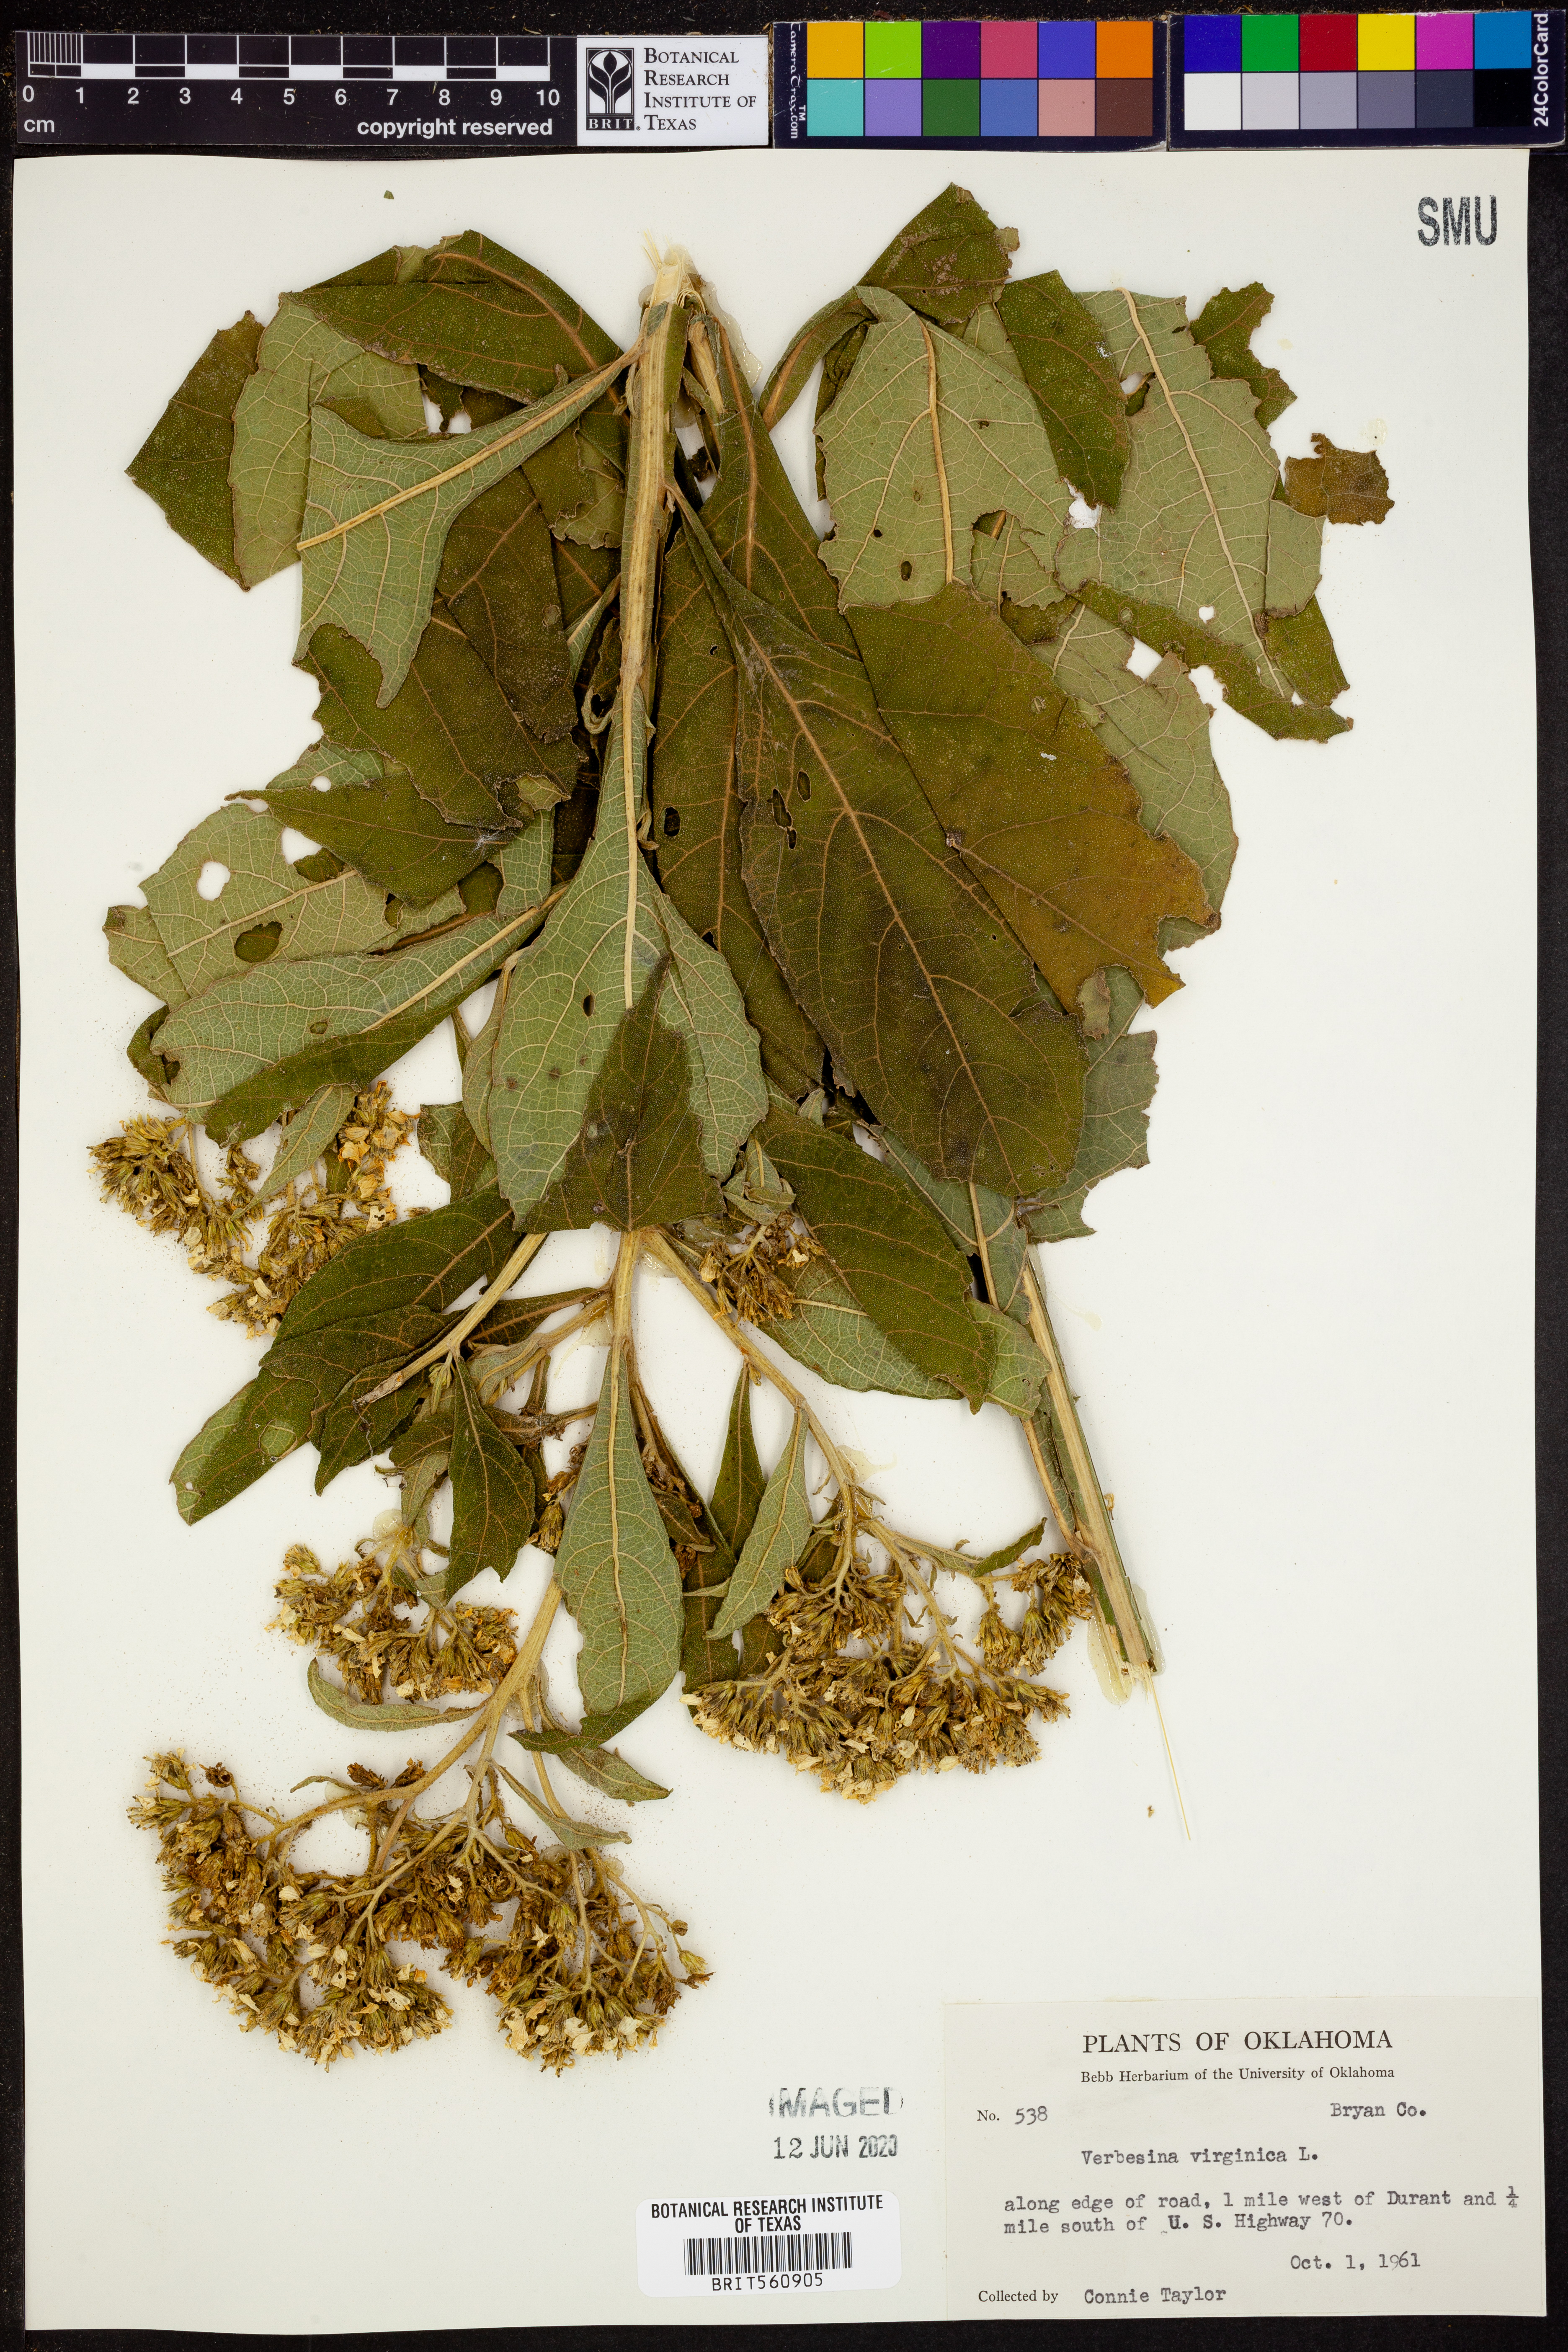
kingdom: Plantae
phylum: Tracheophyta
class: Magnoliopsida
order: Asterales
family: Asteraceae
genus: Verbesina
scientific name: Verbesina virginica
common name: Frostweed
